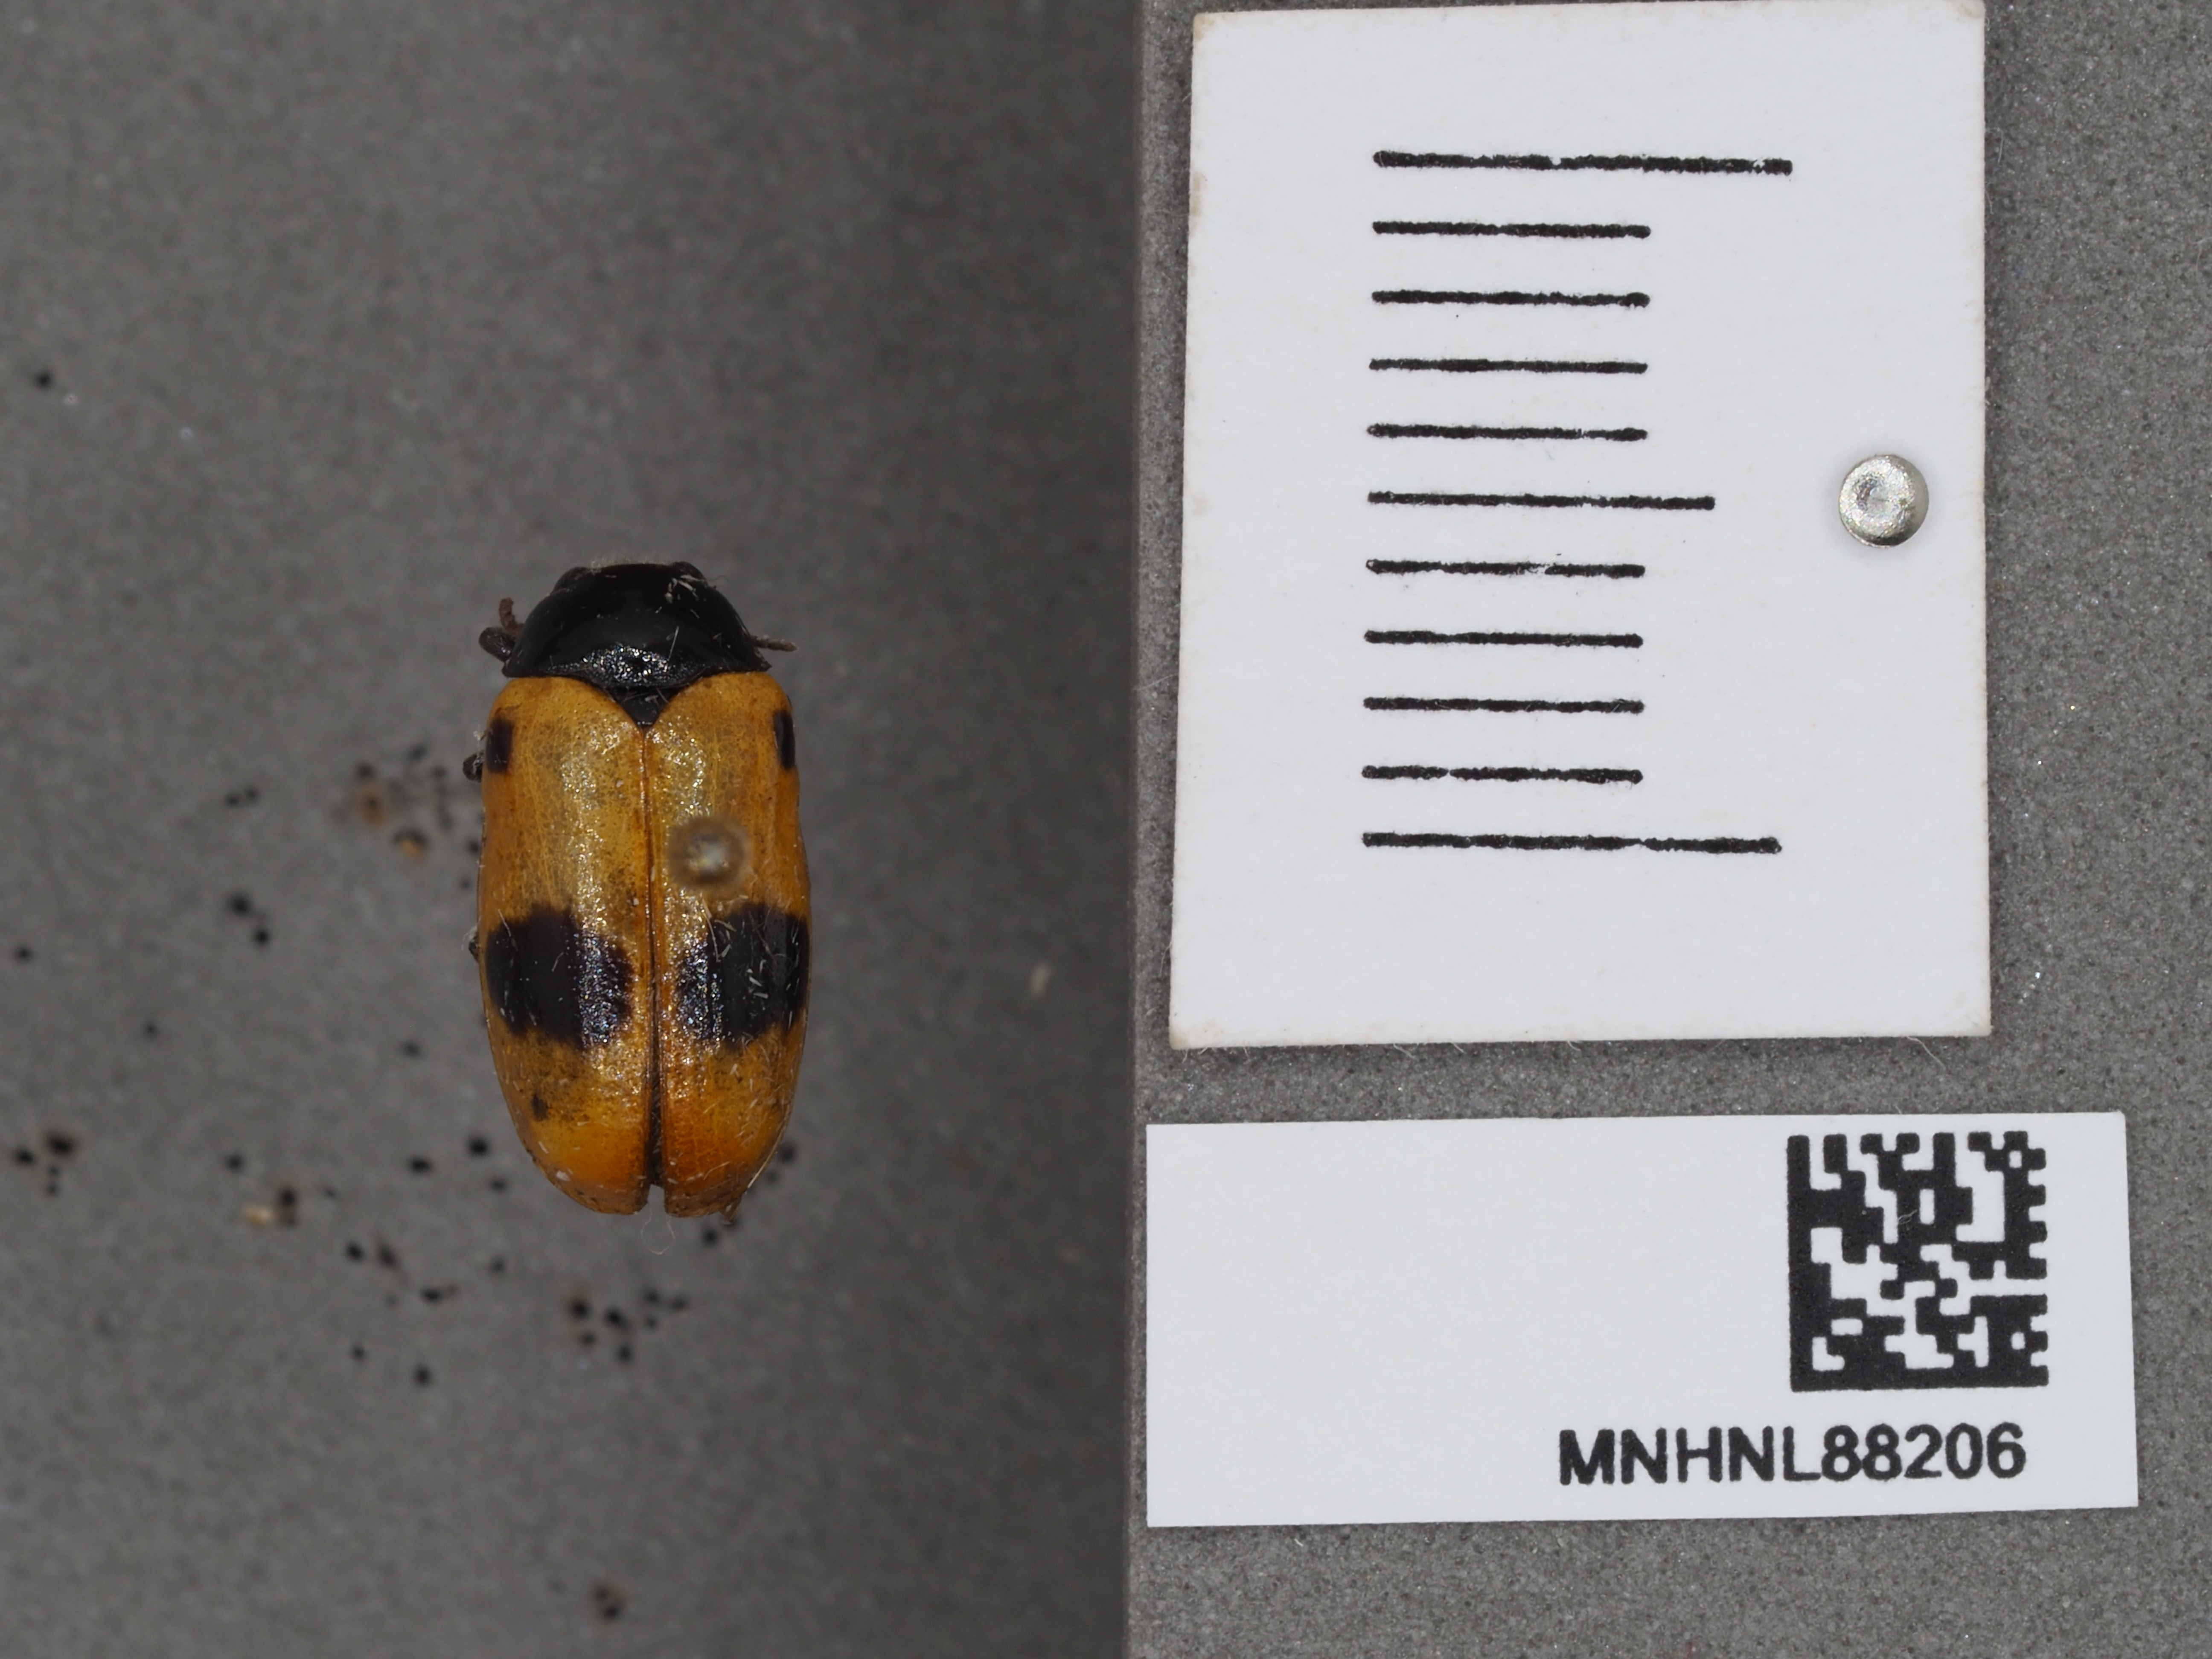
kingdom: Animalia
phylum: Arthropoda
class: Insecta
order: Coleoptera
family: Chrysomelidae
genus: Clytra
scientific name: Clytra laeviuscula
